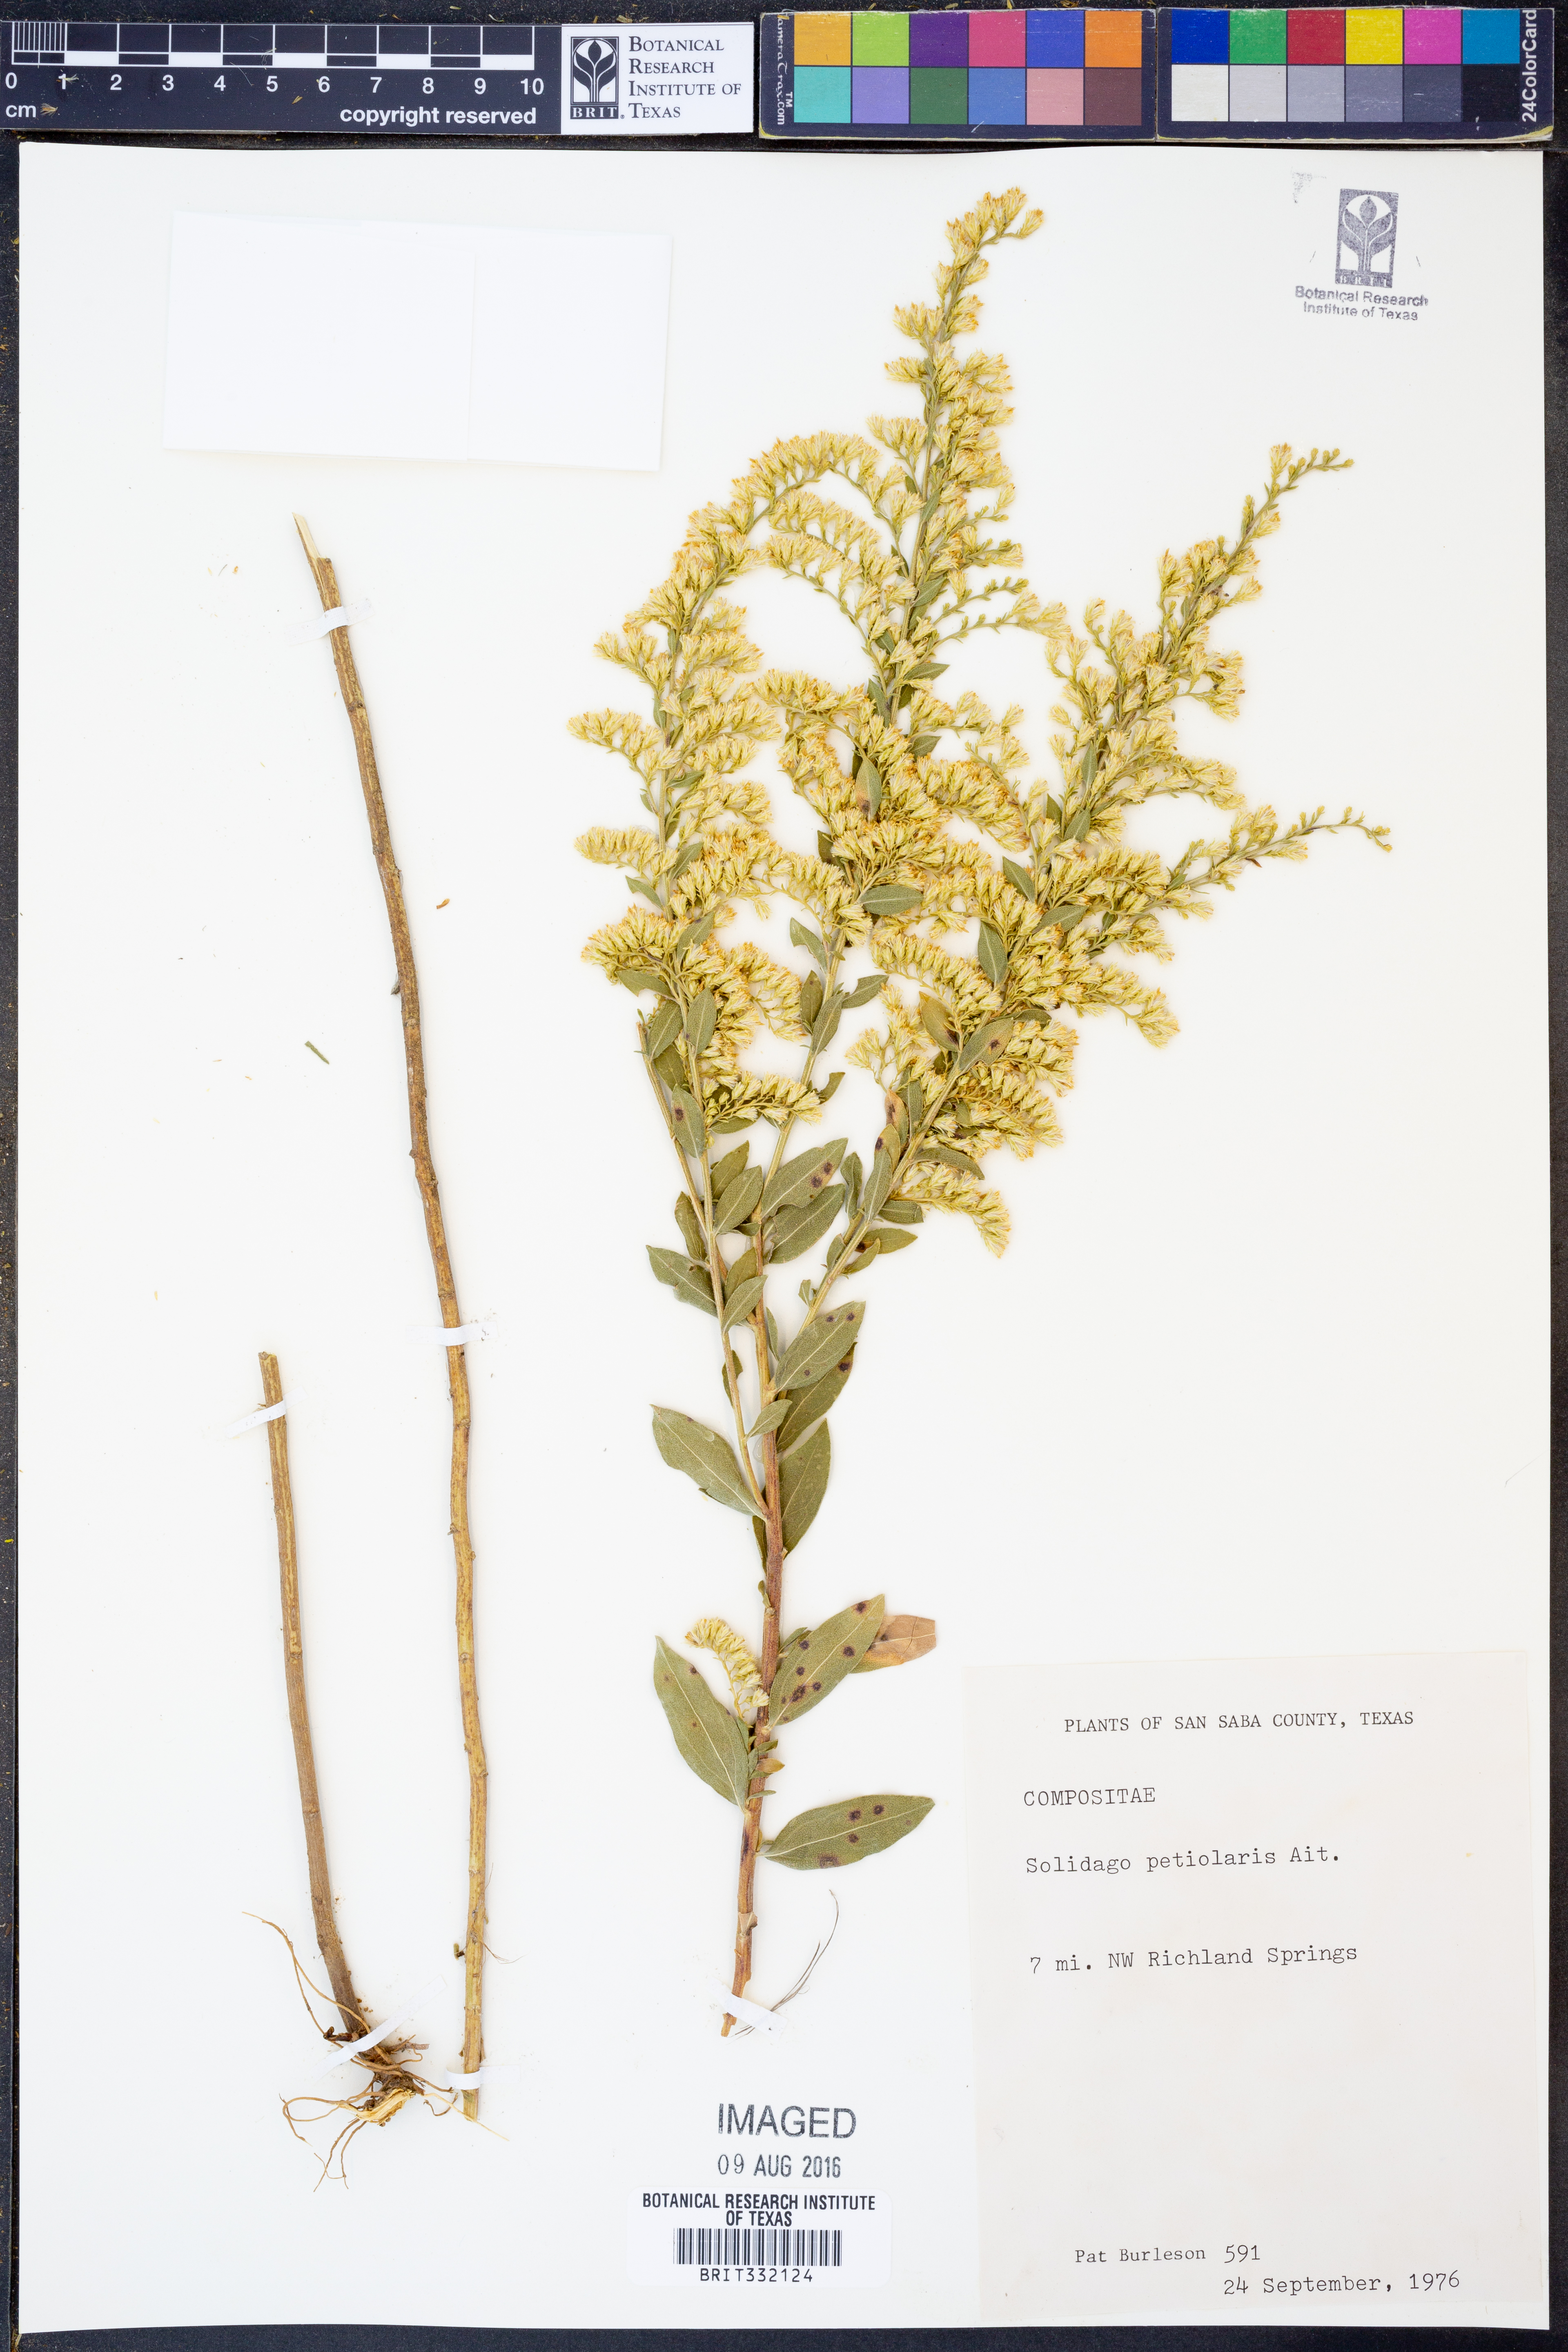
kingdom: Plantae
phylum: Tracheophyta
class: Magnoliopsida
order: Asterales
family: Asteraceae
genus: Solidago
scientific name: Solidago petiolaris
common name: Downy ragged goldenrod
